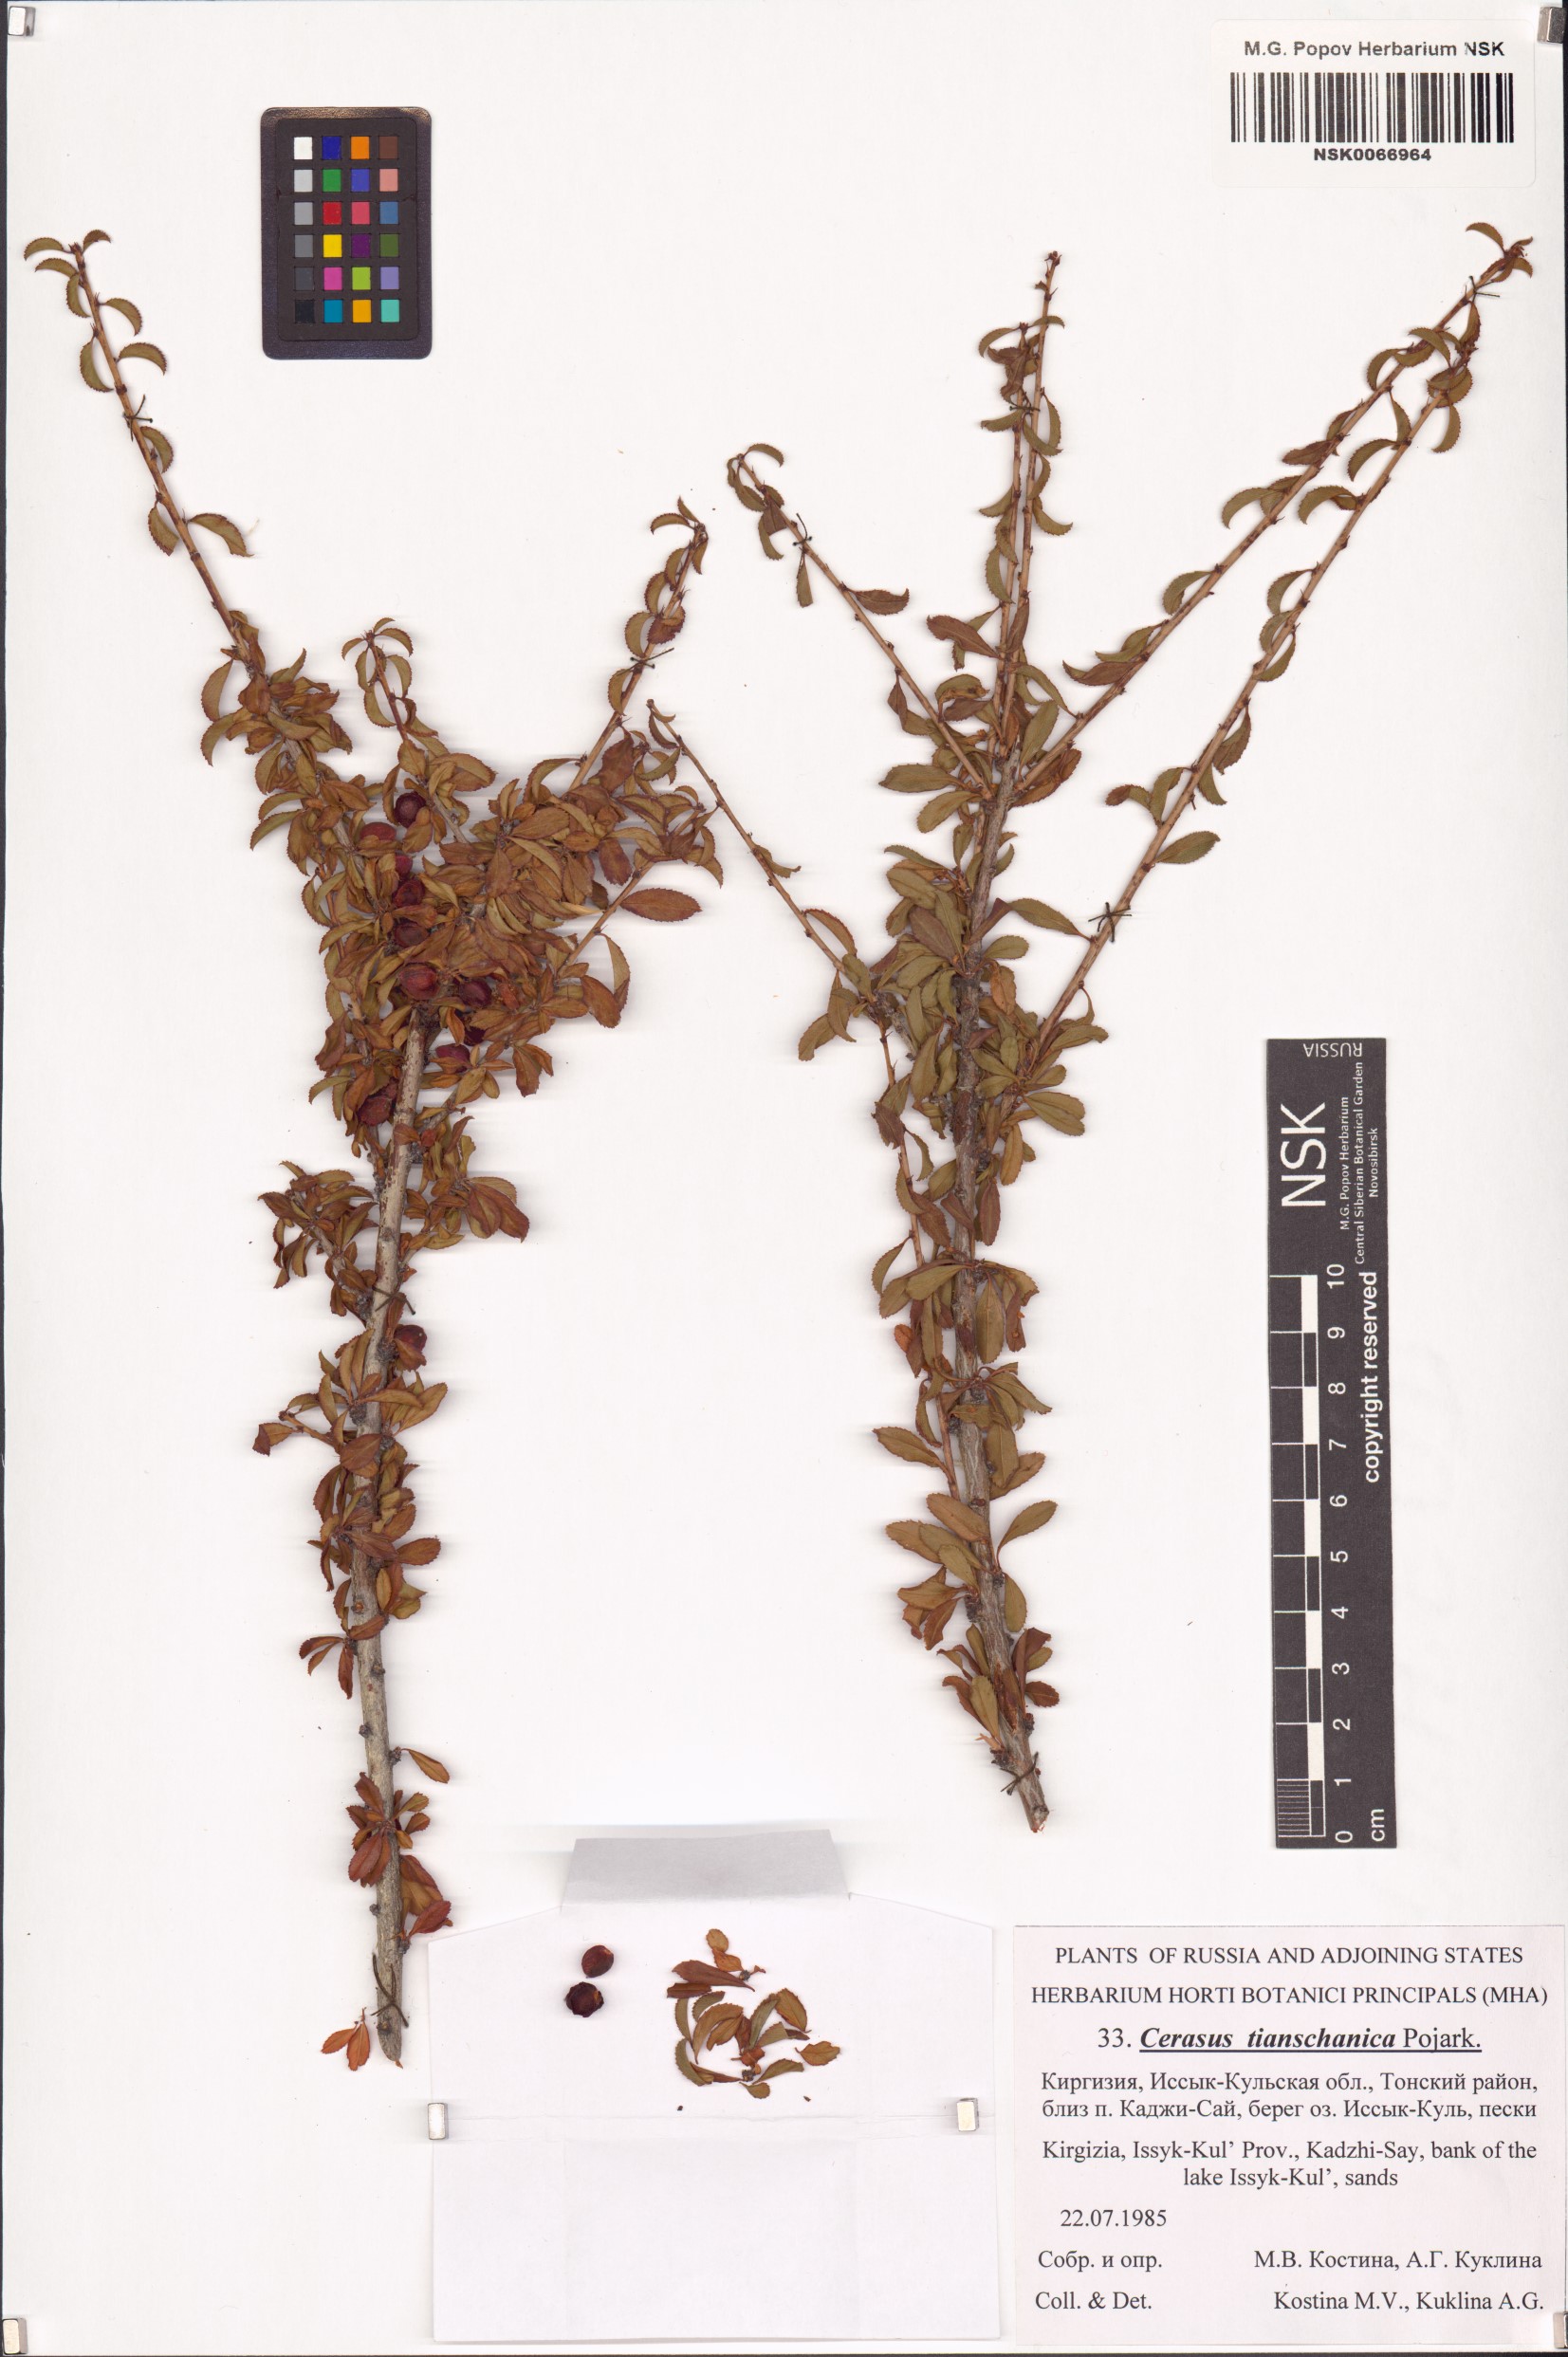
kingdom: Plantae
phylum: Tracheophyta
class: Magnoliopsida
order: Rosales
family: Rosaceae
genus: Prunus
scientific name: Prunus griffithii
